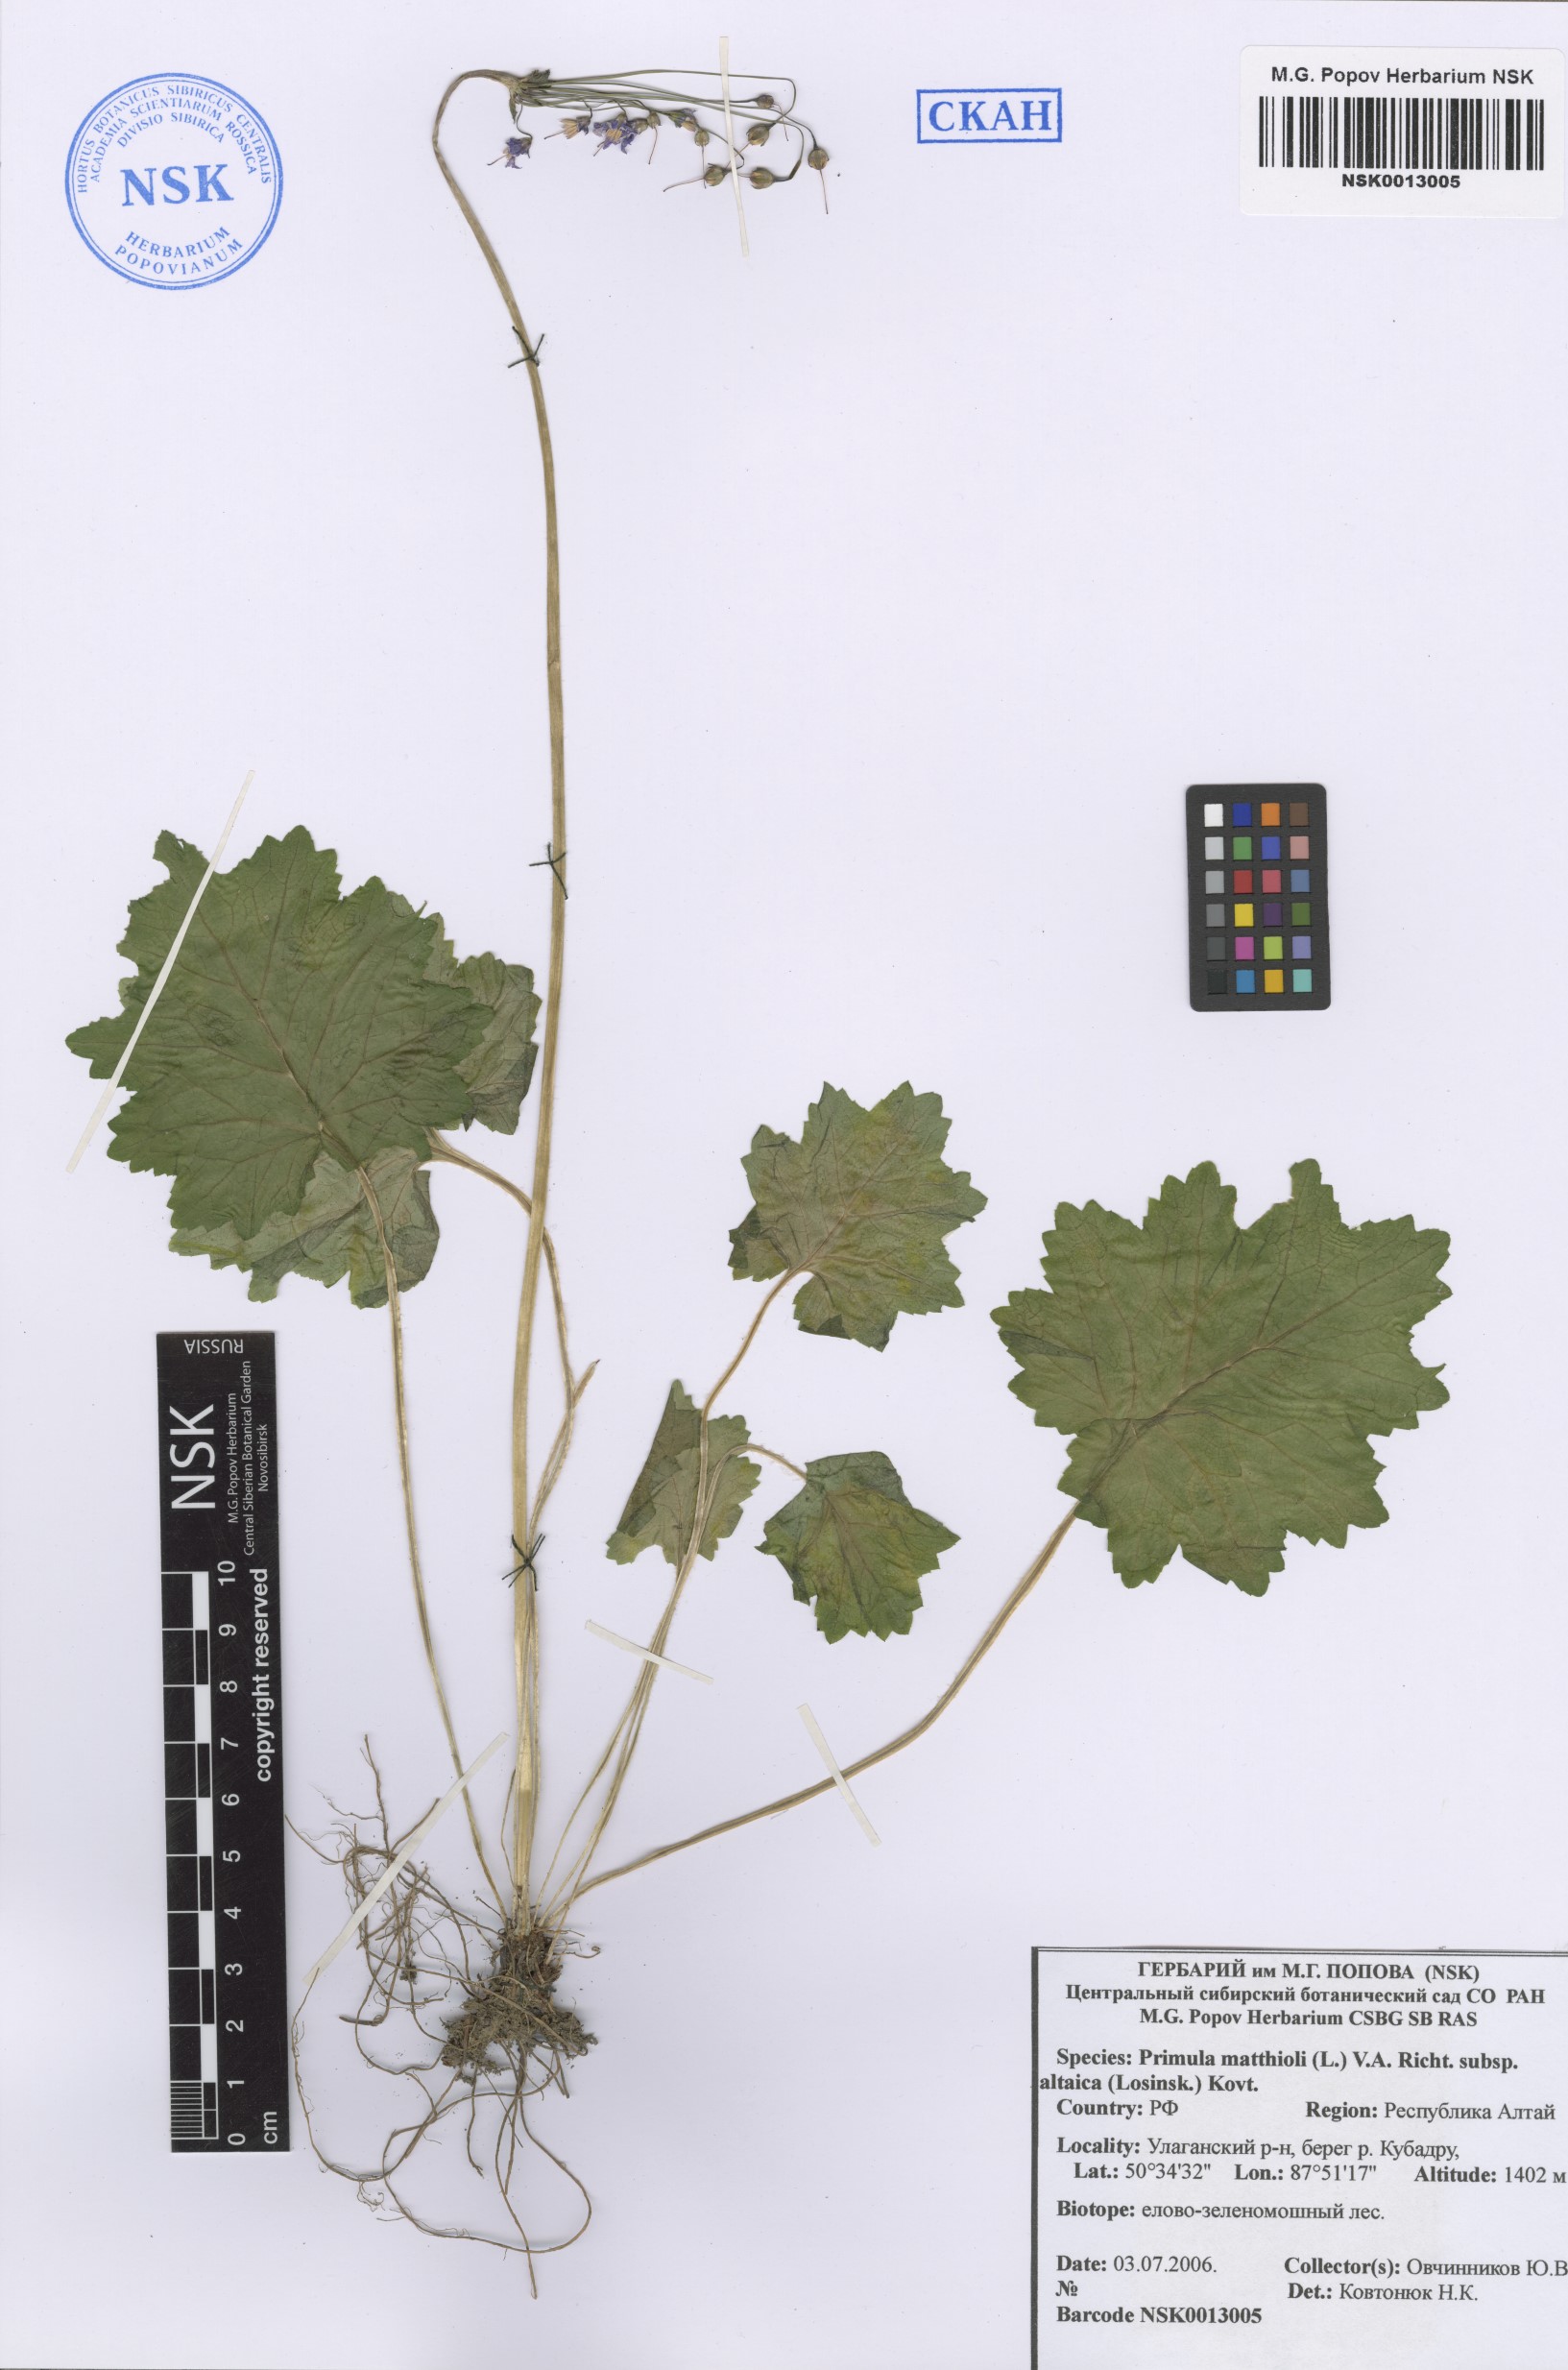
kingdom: Plantae
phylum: Tracheophyta
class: Magnoliopsida
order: Ericales
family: Primulaceae
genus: Primula
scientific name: Primula matthioli
